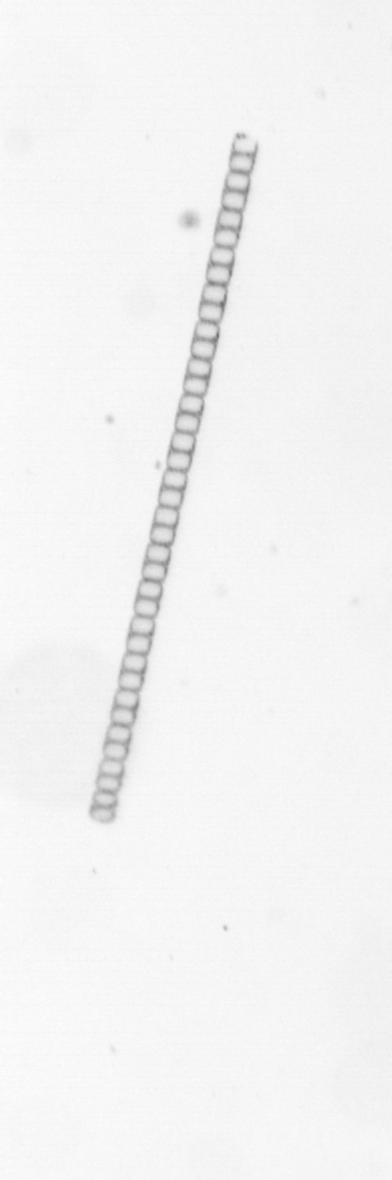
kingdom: Chromista
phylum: Ochrophyta
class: Bacillariophyceae
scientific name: Bacillariophyceae
